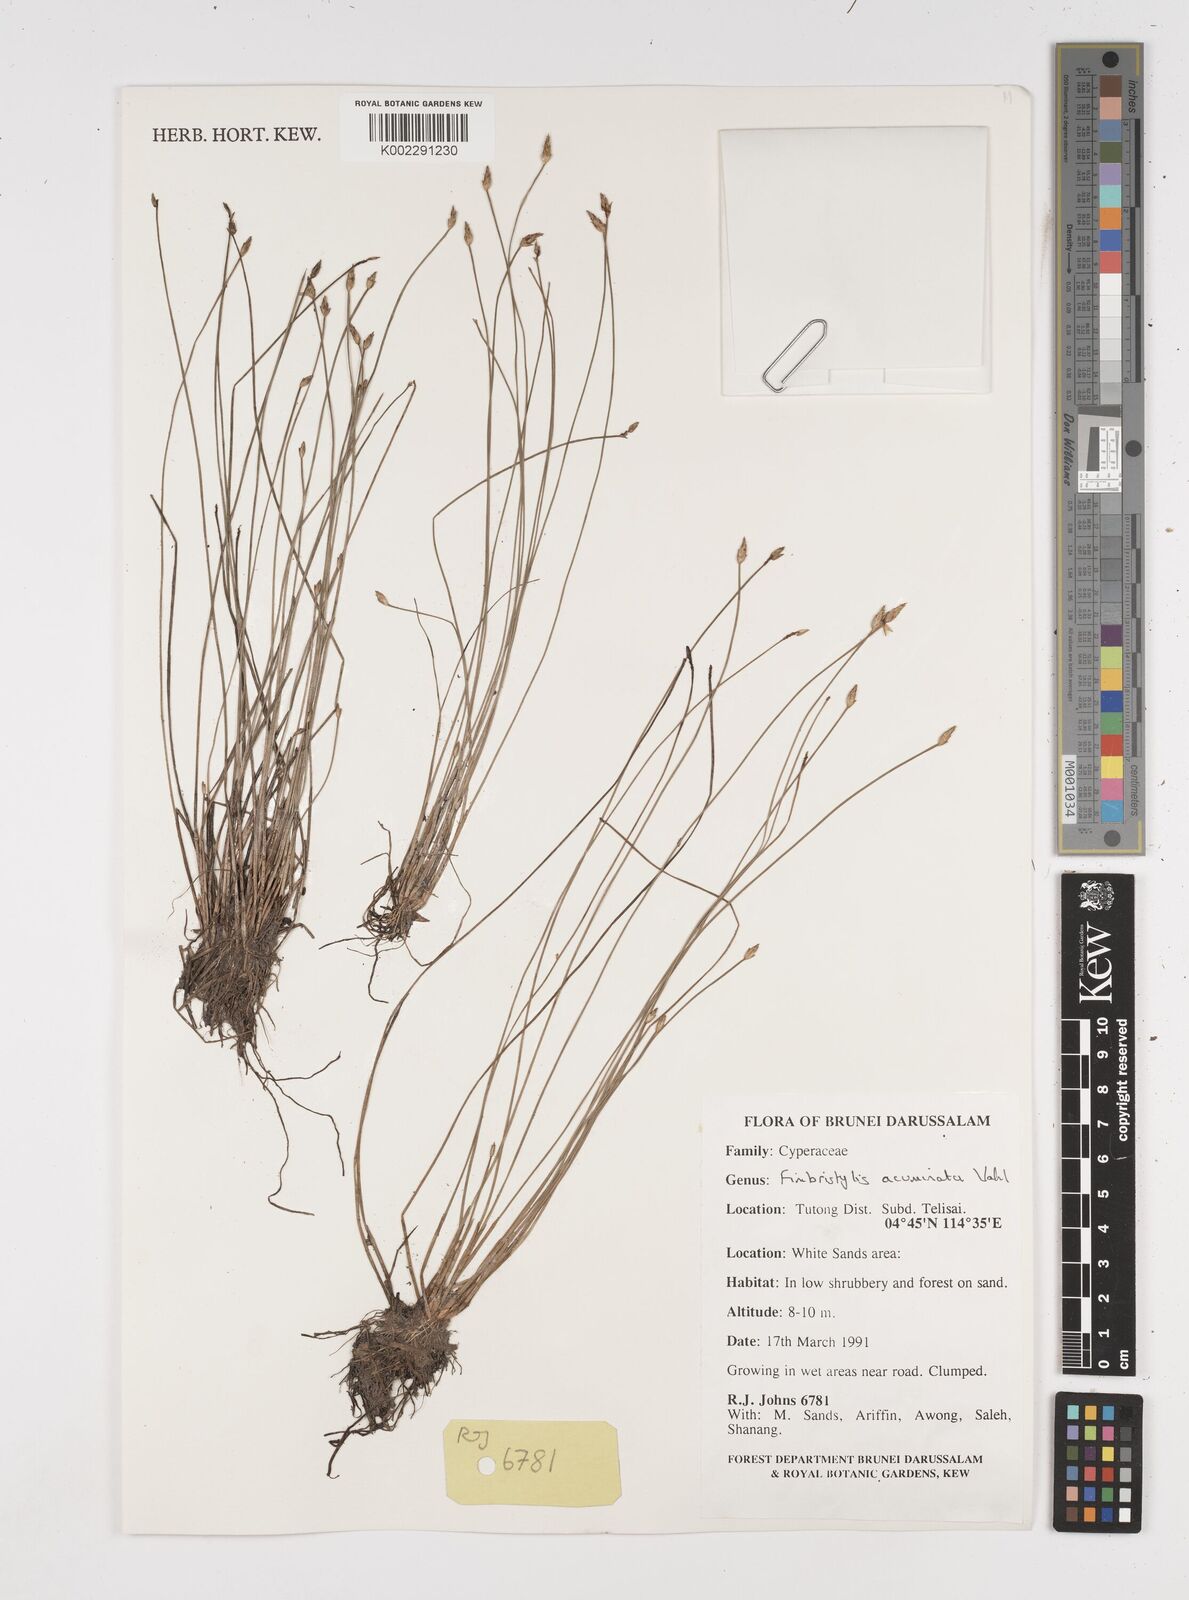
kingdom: Plantae
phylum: Tracheophyta
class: Liliopsida
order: Poales
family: Cyperaceae
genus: Fimbristylis
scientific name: Fimbristylis acuminata
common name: Pointed fimbristylis
